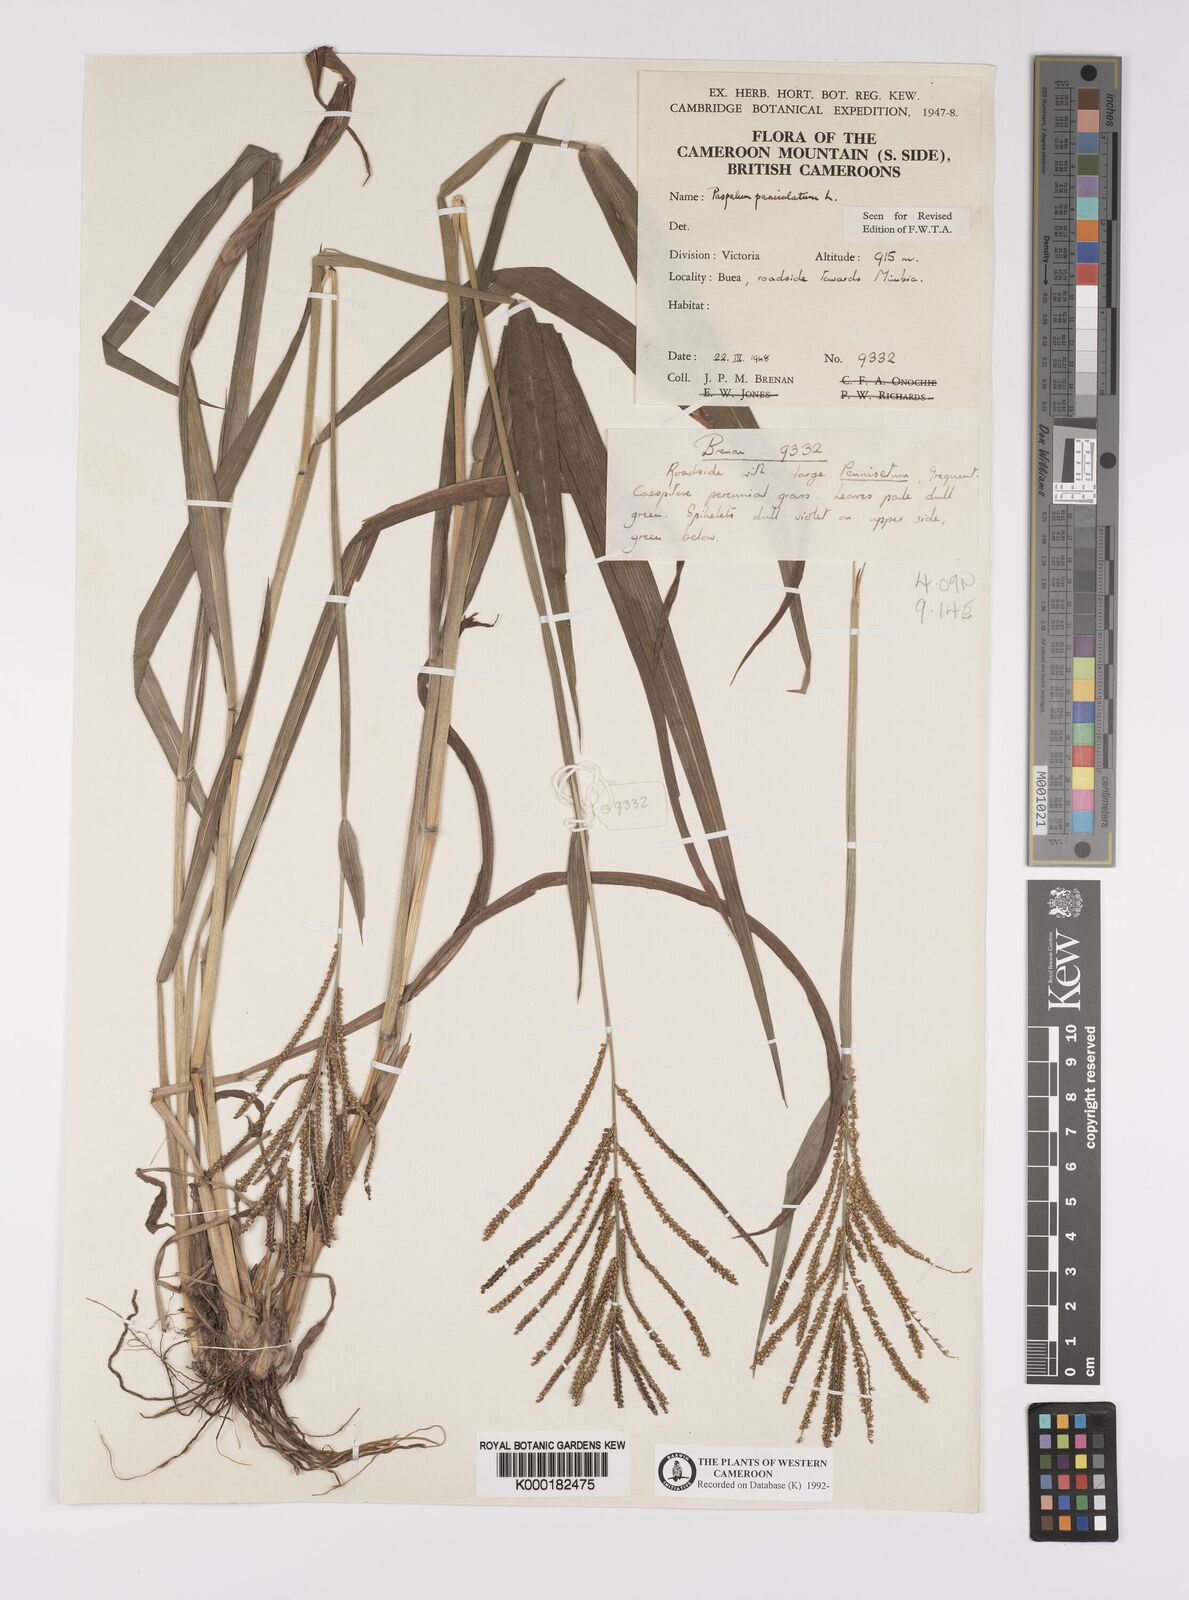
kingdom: Plantae
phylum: Tracheophyta
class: Liliopsida
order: Poales
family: Poaceae
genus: Paspalum
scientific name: Paspalum paniculatum
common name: Arrocillo
